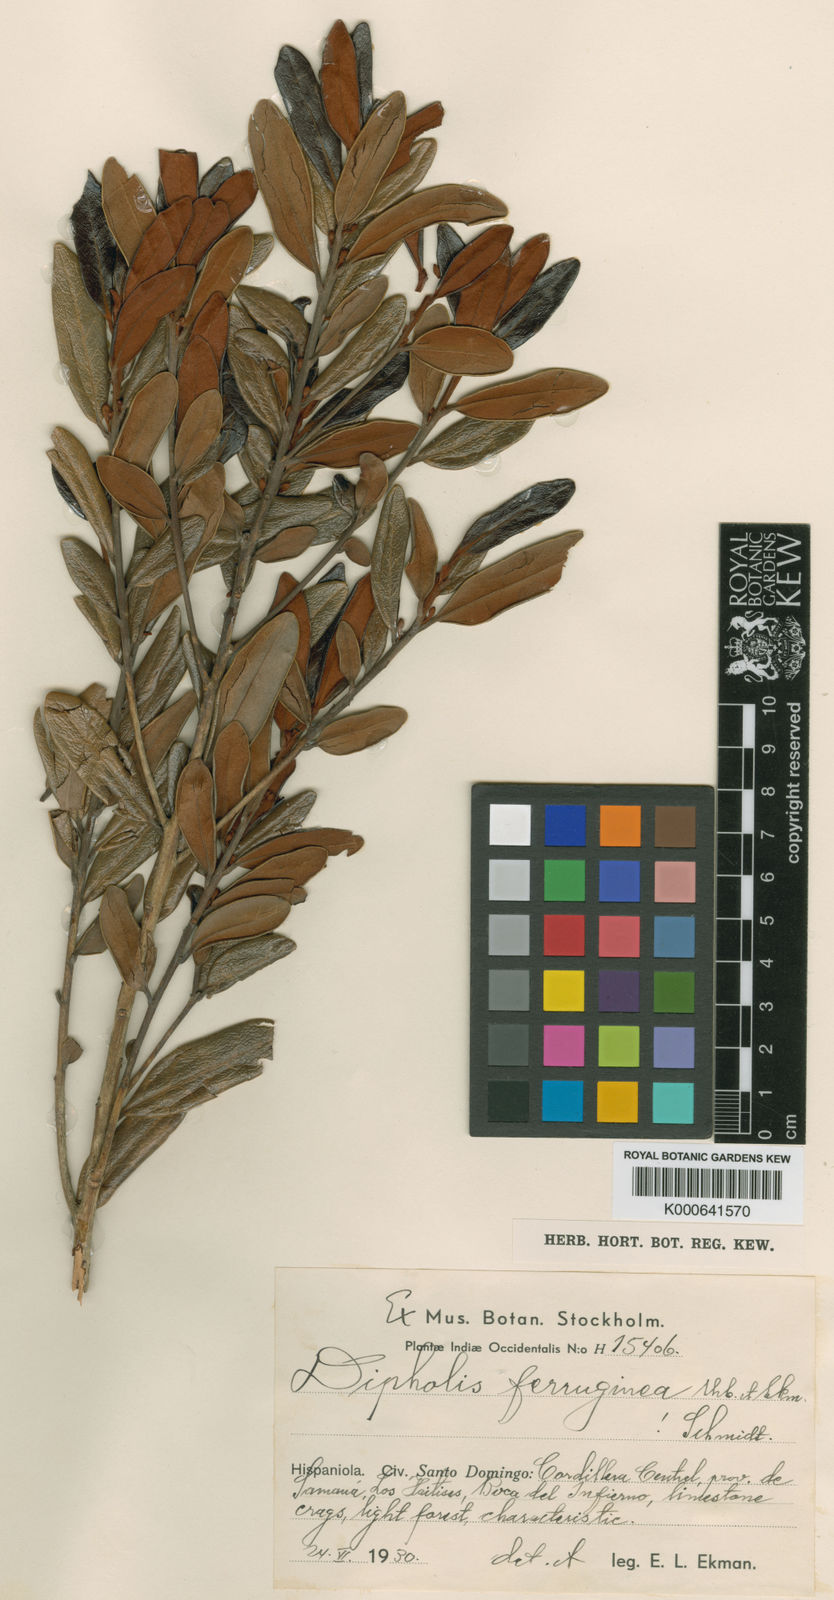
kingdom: Plantae
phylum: Tracheophyta
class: Magnoliopsida
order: Ericales
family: Sapotaceae
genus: Sideroxylon
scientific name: Sideroxylon dominicanum
